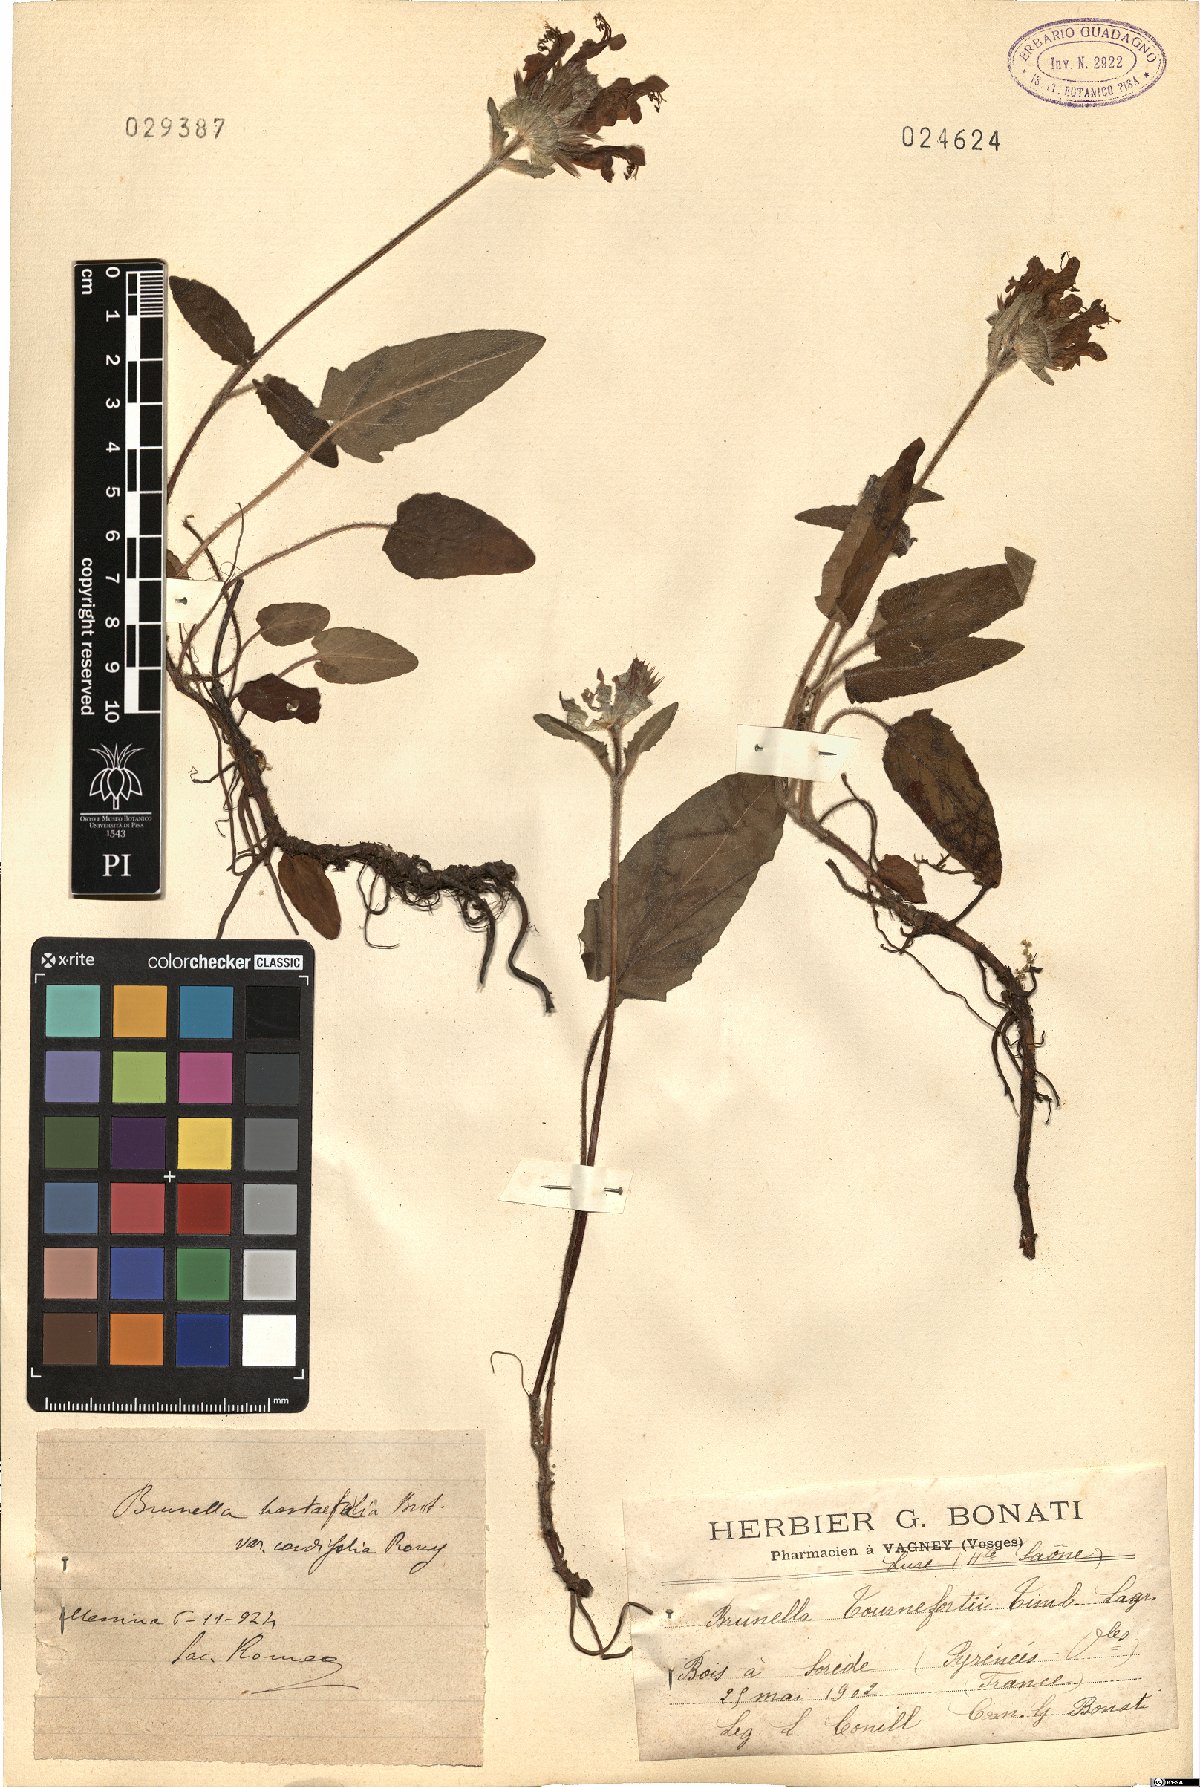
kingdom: Plantae
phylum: Tracheophyta
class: Magnoliopsida
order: Lamiales
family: Lamiaceae
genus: Prunella
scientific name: Prunella grandiflora
